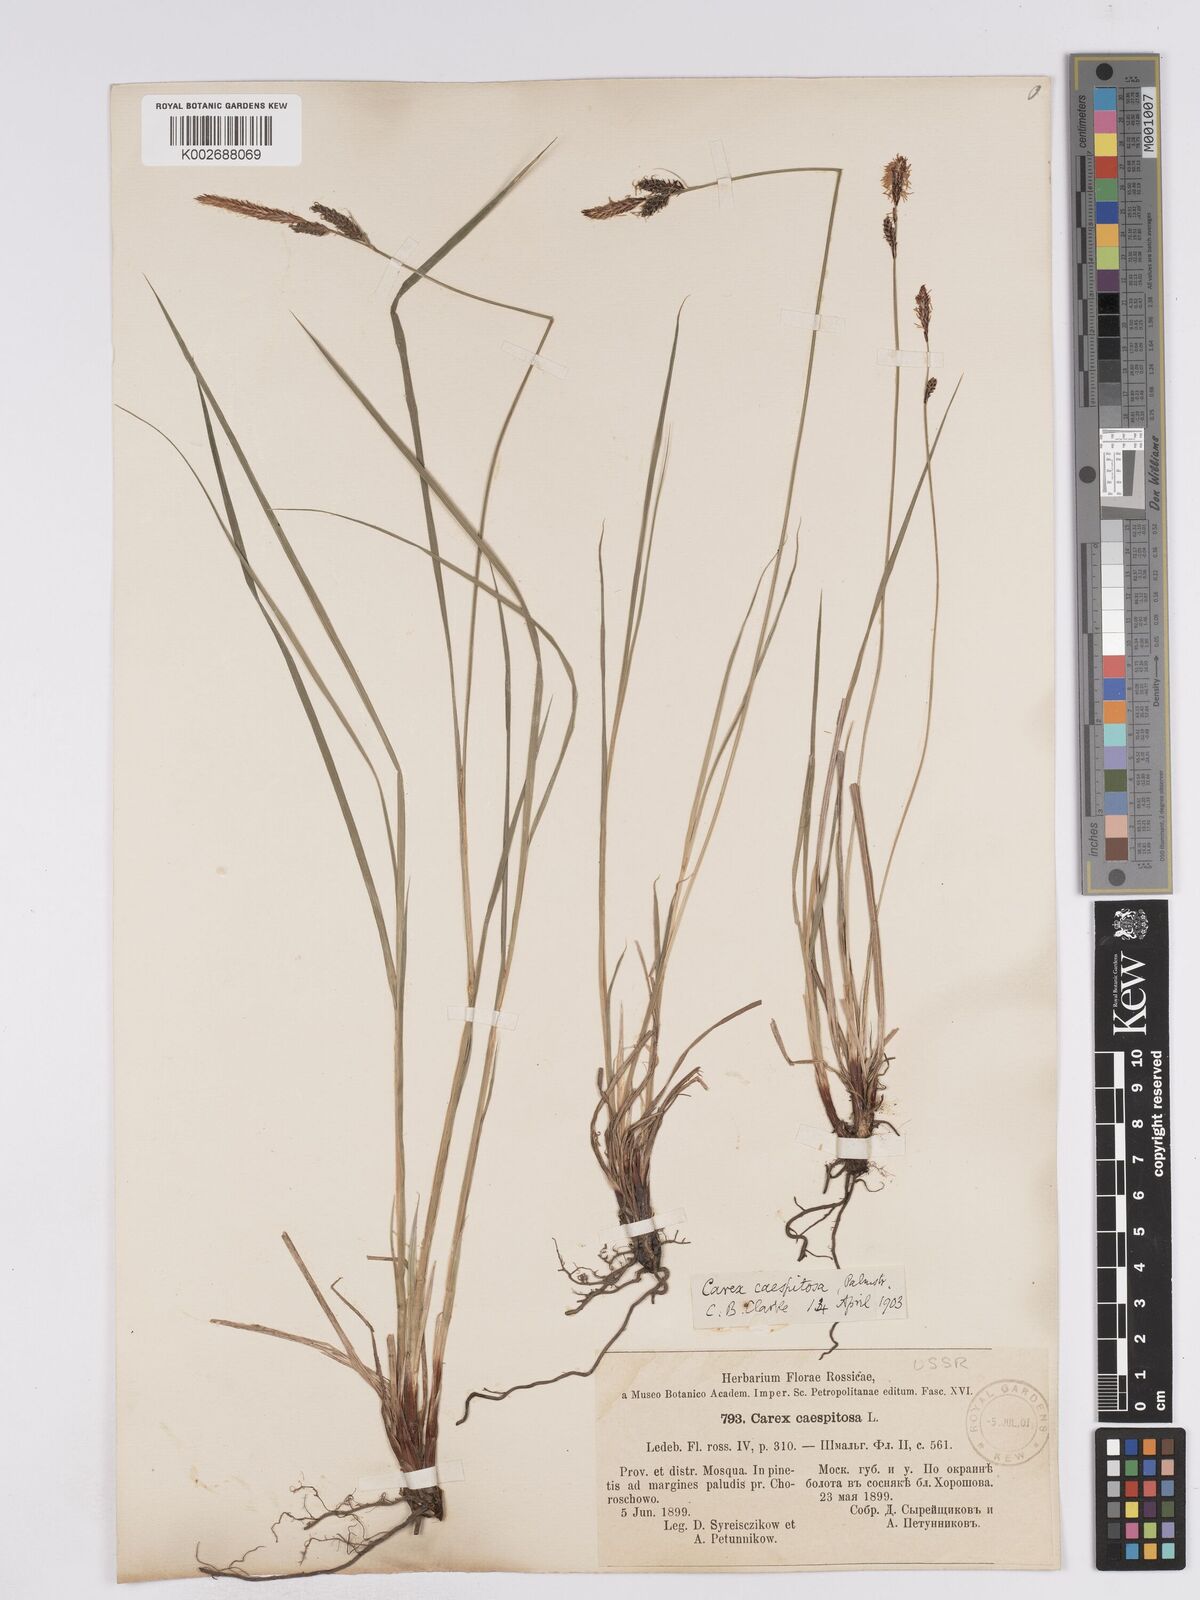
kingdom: Plantae
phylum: Tracheophyta
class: Liliopsida
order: Poales
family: Cyperaceae
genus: Carex
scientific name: Carex cespitosa
